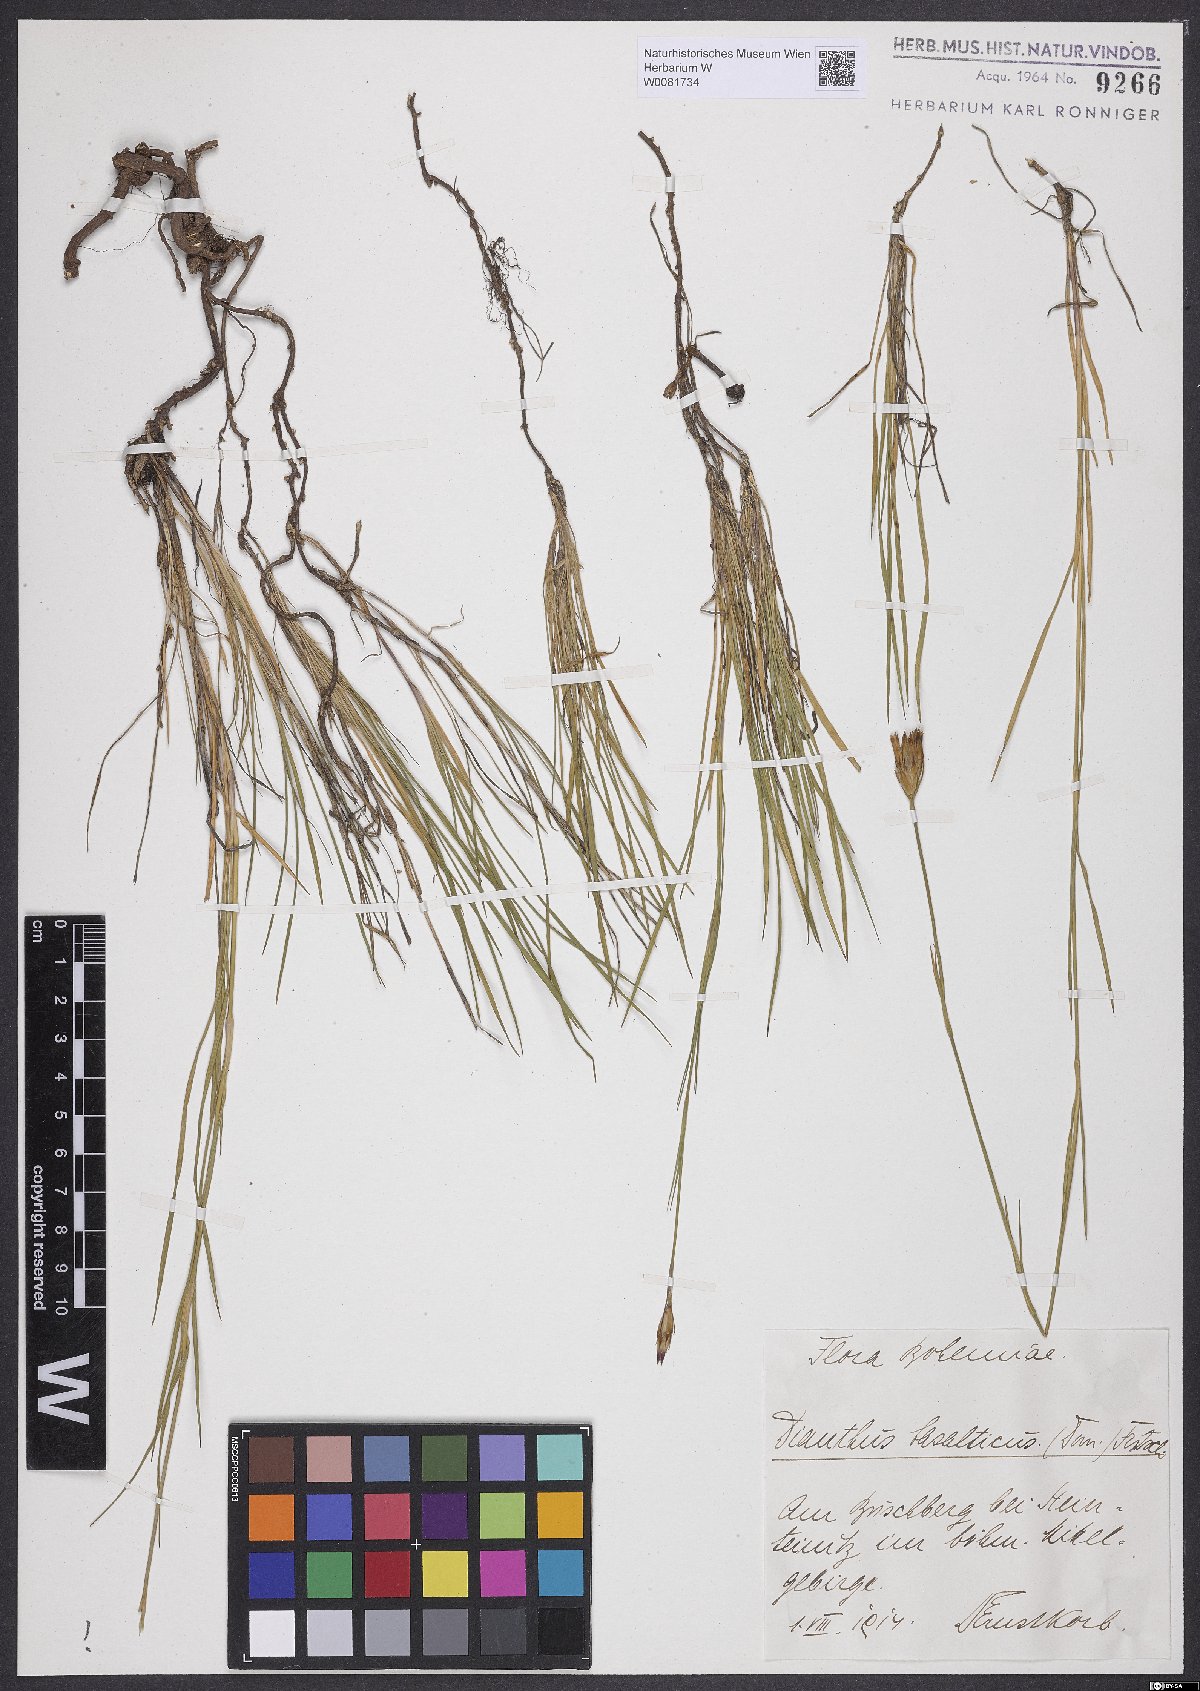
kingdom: Plantae
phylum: Tracheophyta
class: Magnoliopsida
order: Caryophyllales
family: Caryophyllaceae
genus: Dianthus
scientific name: Dianthus carthusianorum
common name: Carthusian pink
